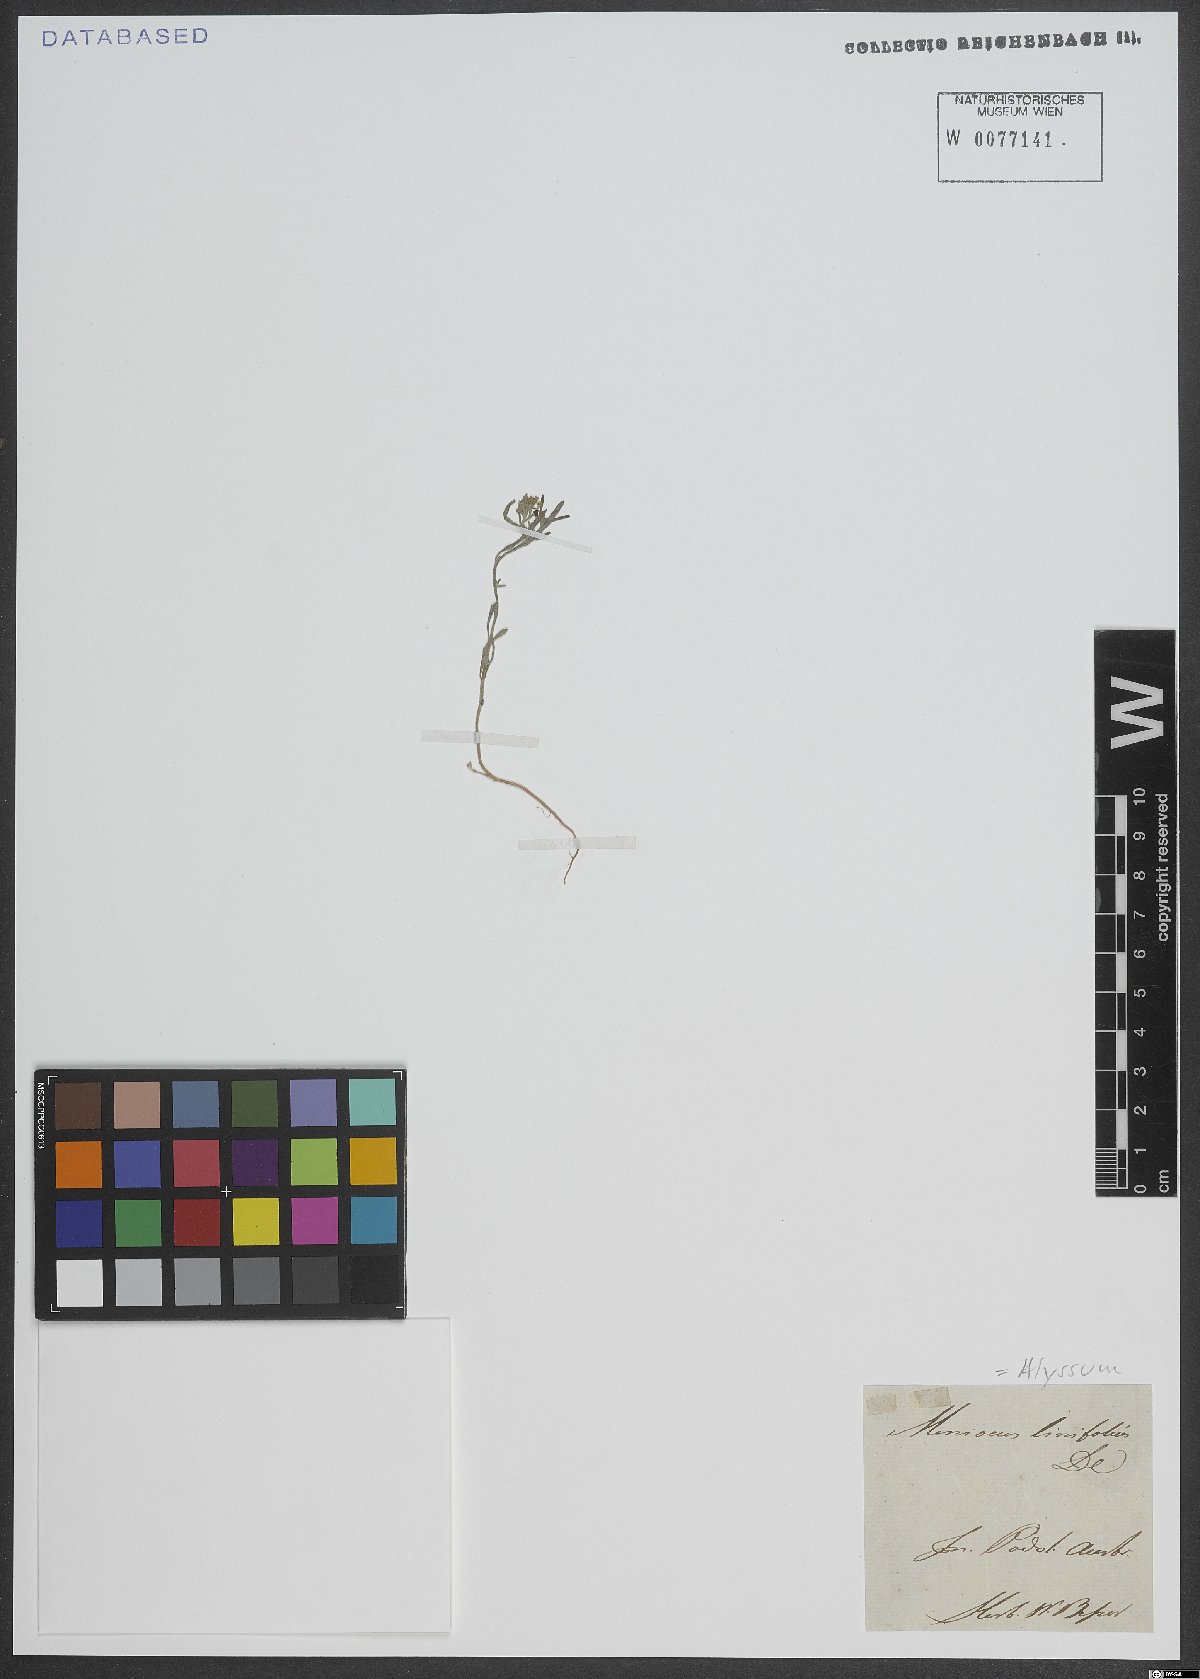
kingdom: Plantae
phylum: Tracheophyta
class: Magnoliopsida
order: Brassicales
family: Brassicaceae
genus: Meniocus
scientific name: Meniocus linifolius
